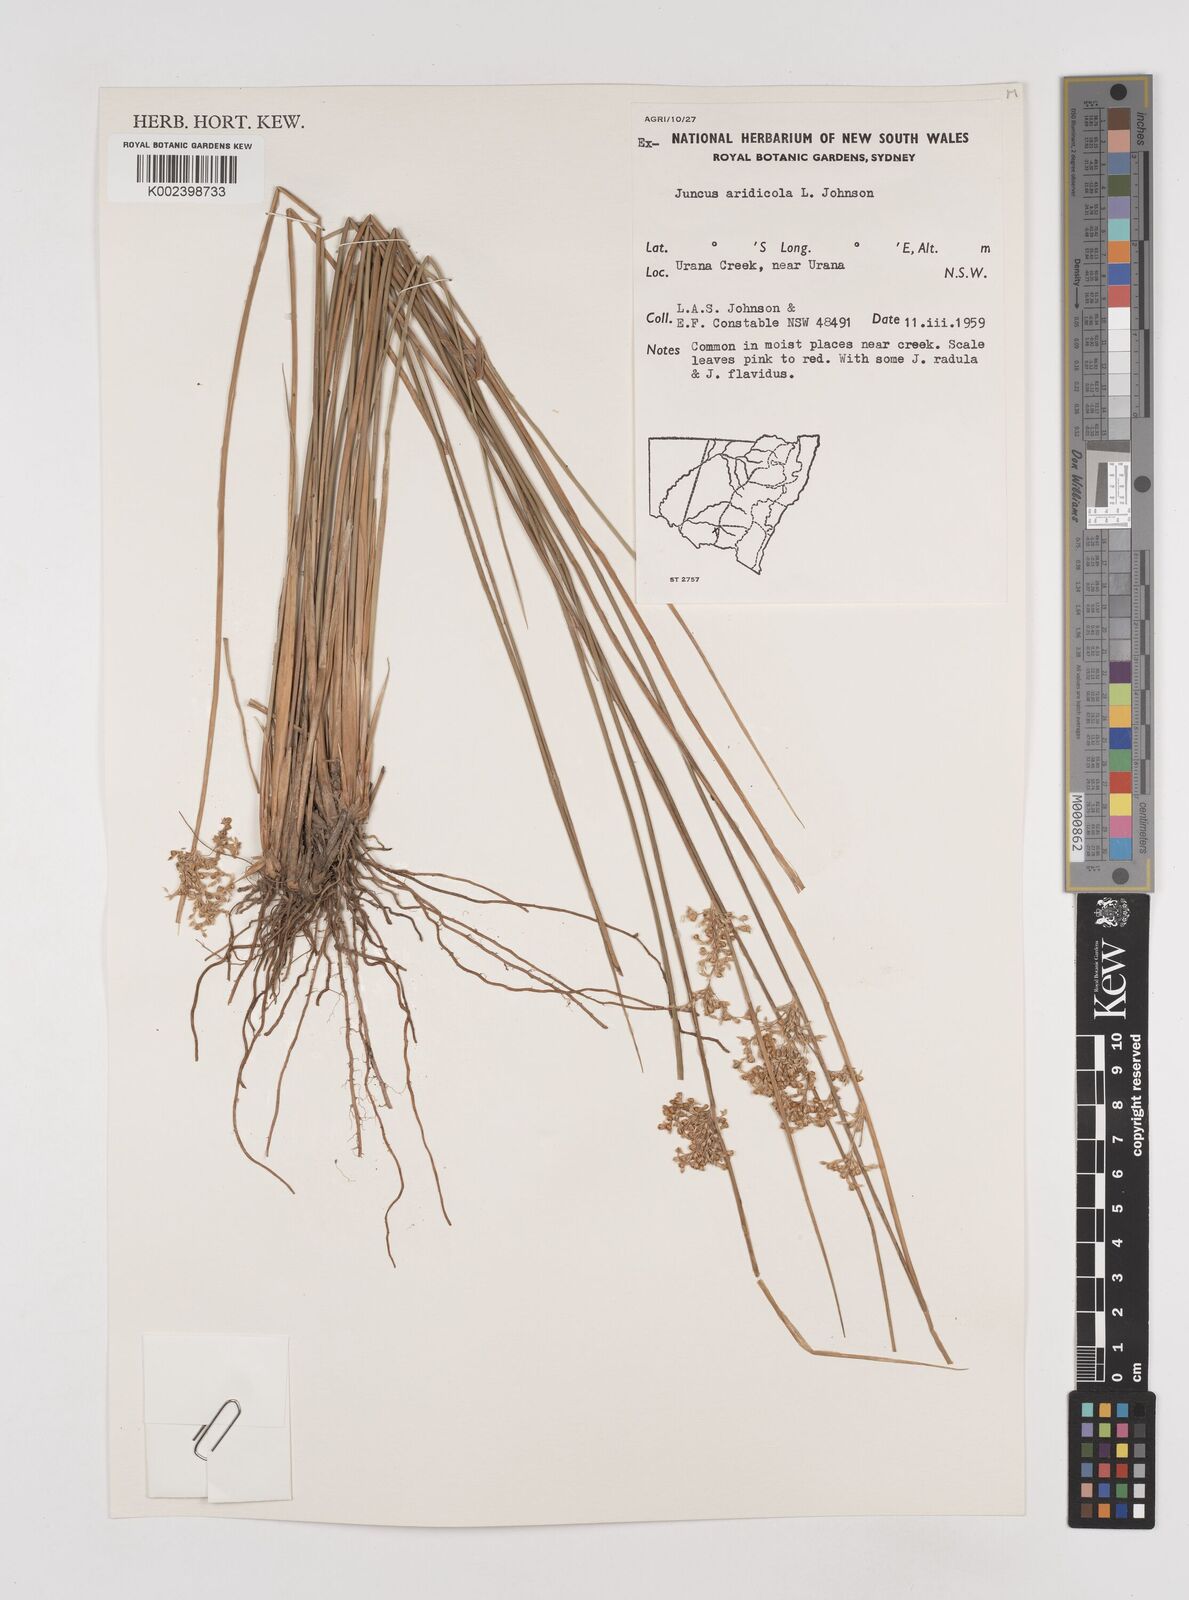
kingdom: Plantae
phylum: Tracheophyta
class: Liliopsida
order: Poales
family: Juncaceae
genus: Juncus
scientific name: Juncus aridicola
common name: Tussock rush
